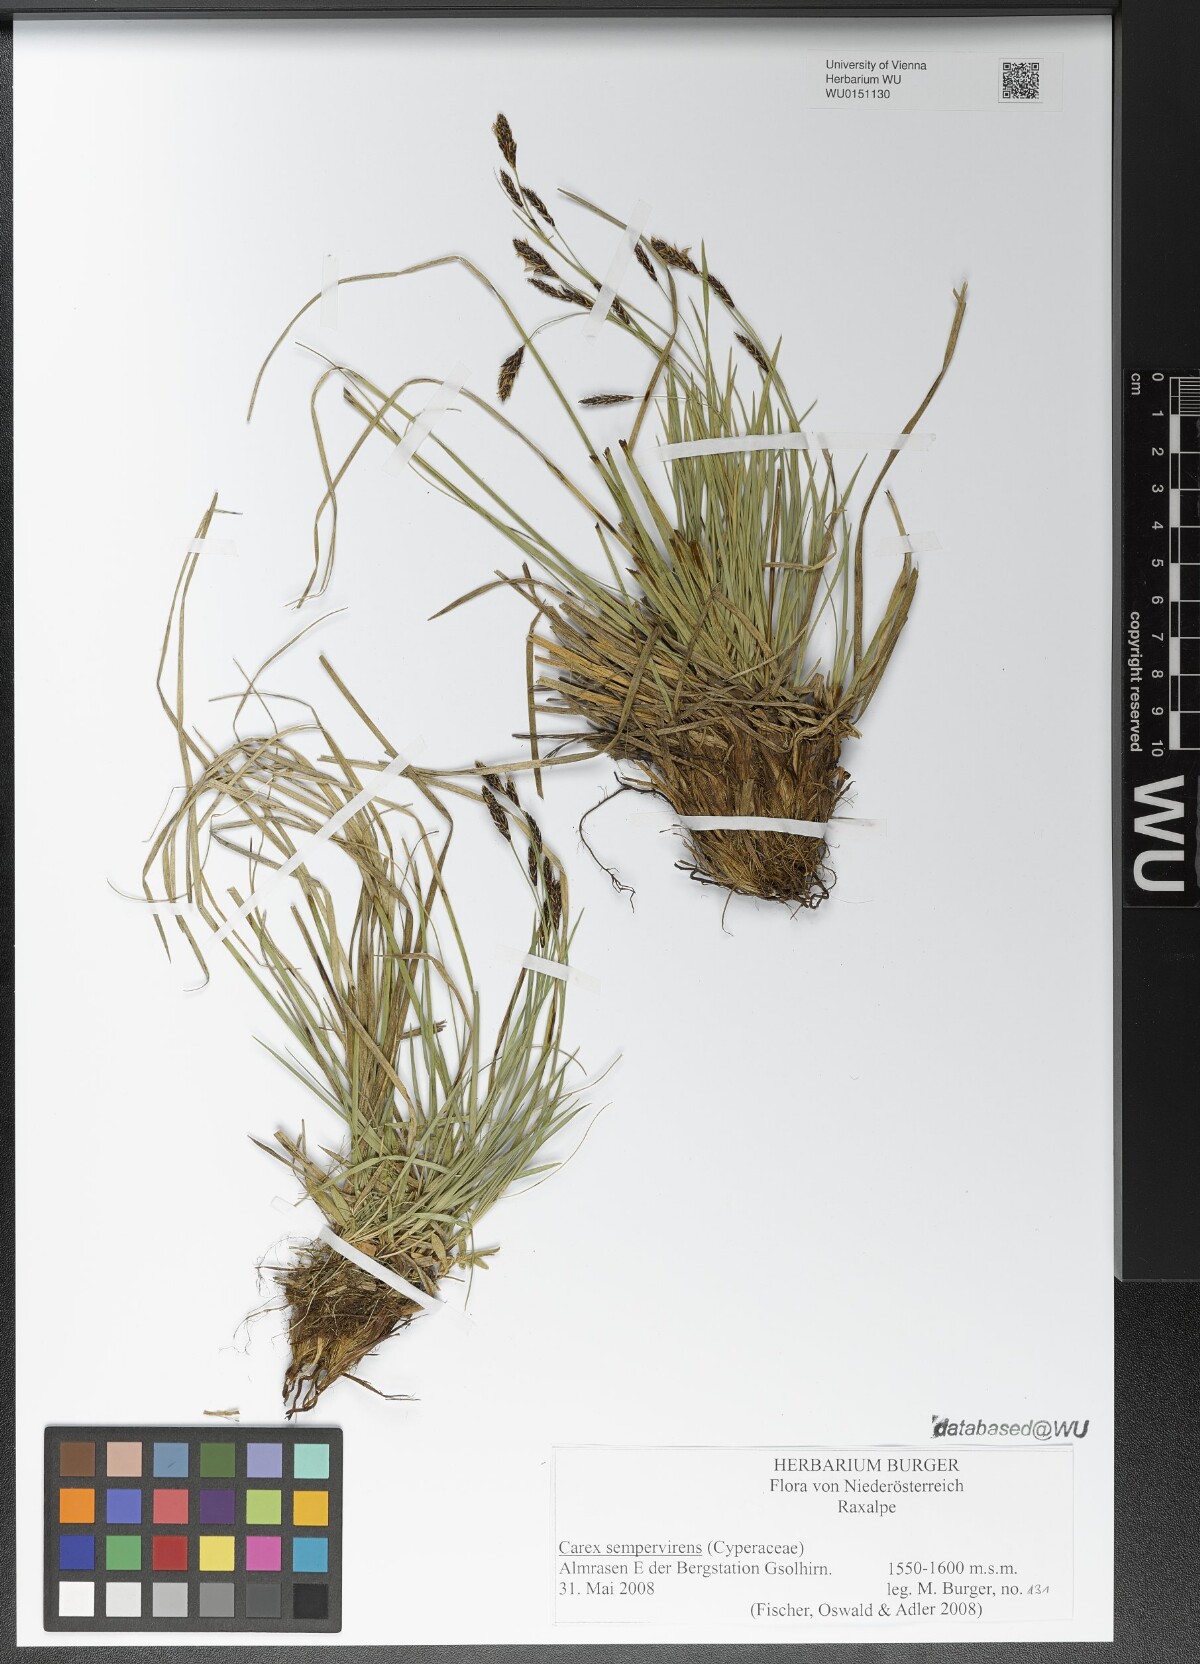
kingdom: Plantae
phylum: Tracheophyta
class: Liliopsida
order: Poales
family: Cyperaceae
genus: Carex
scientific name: Carex sempervirens
